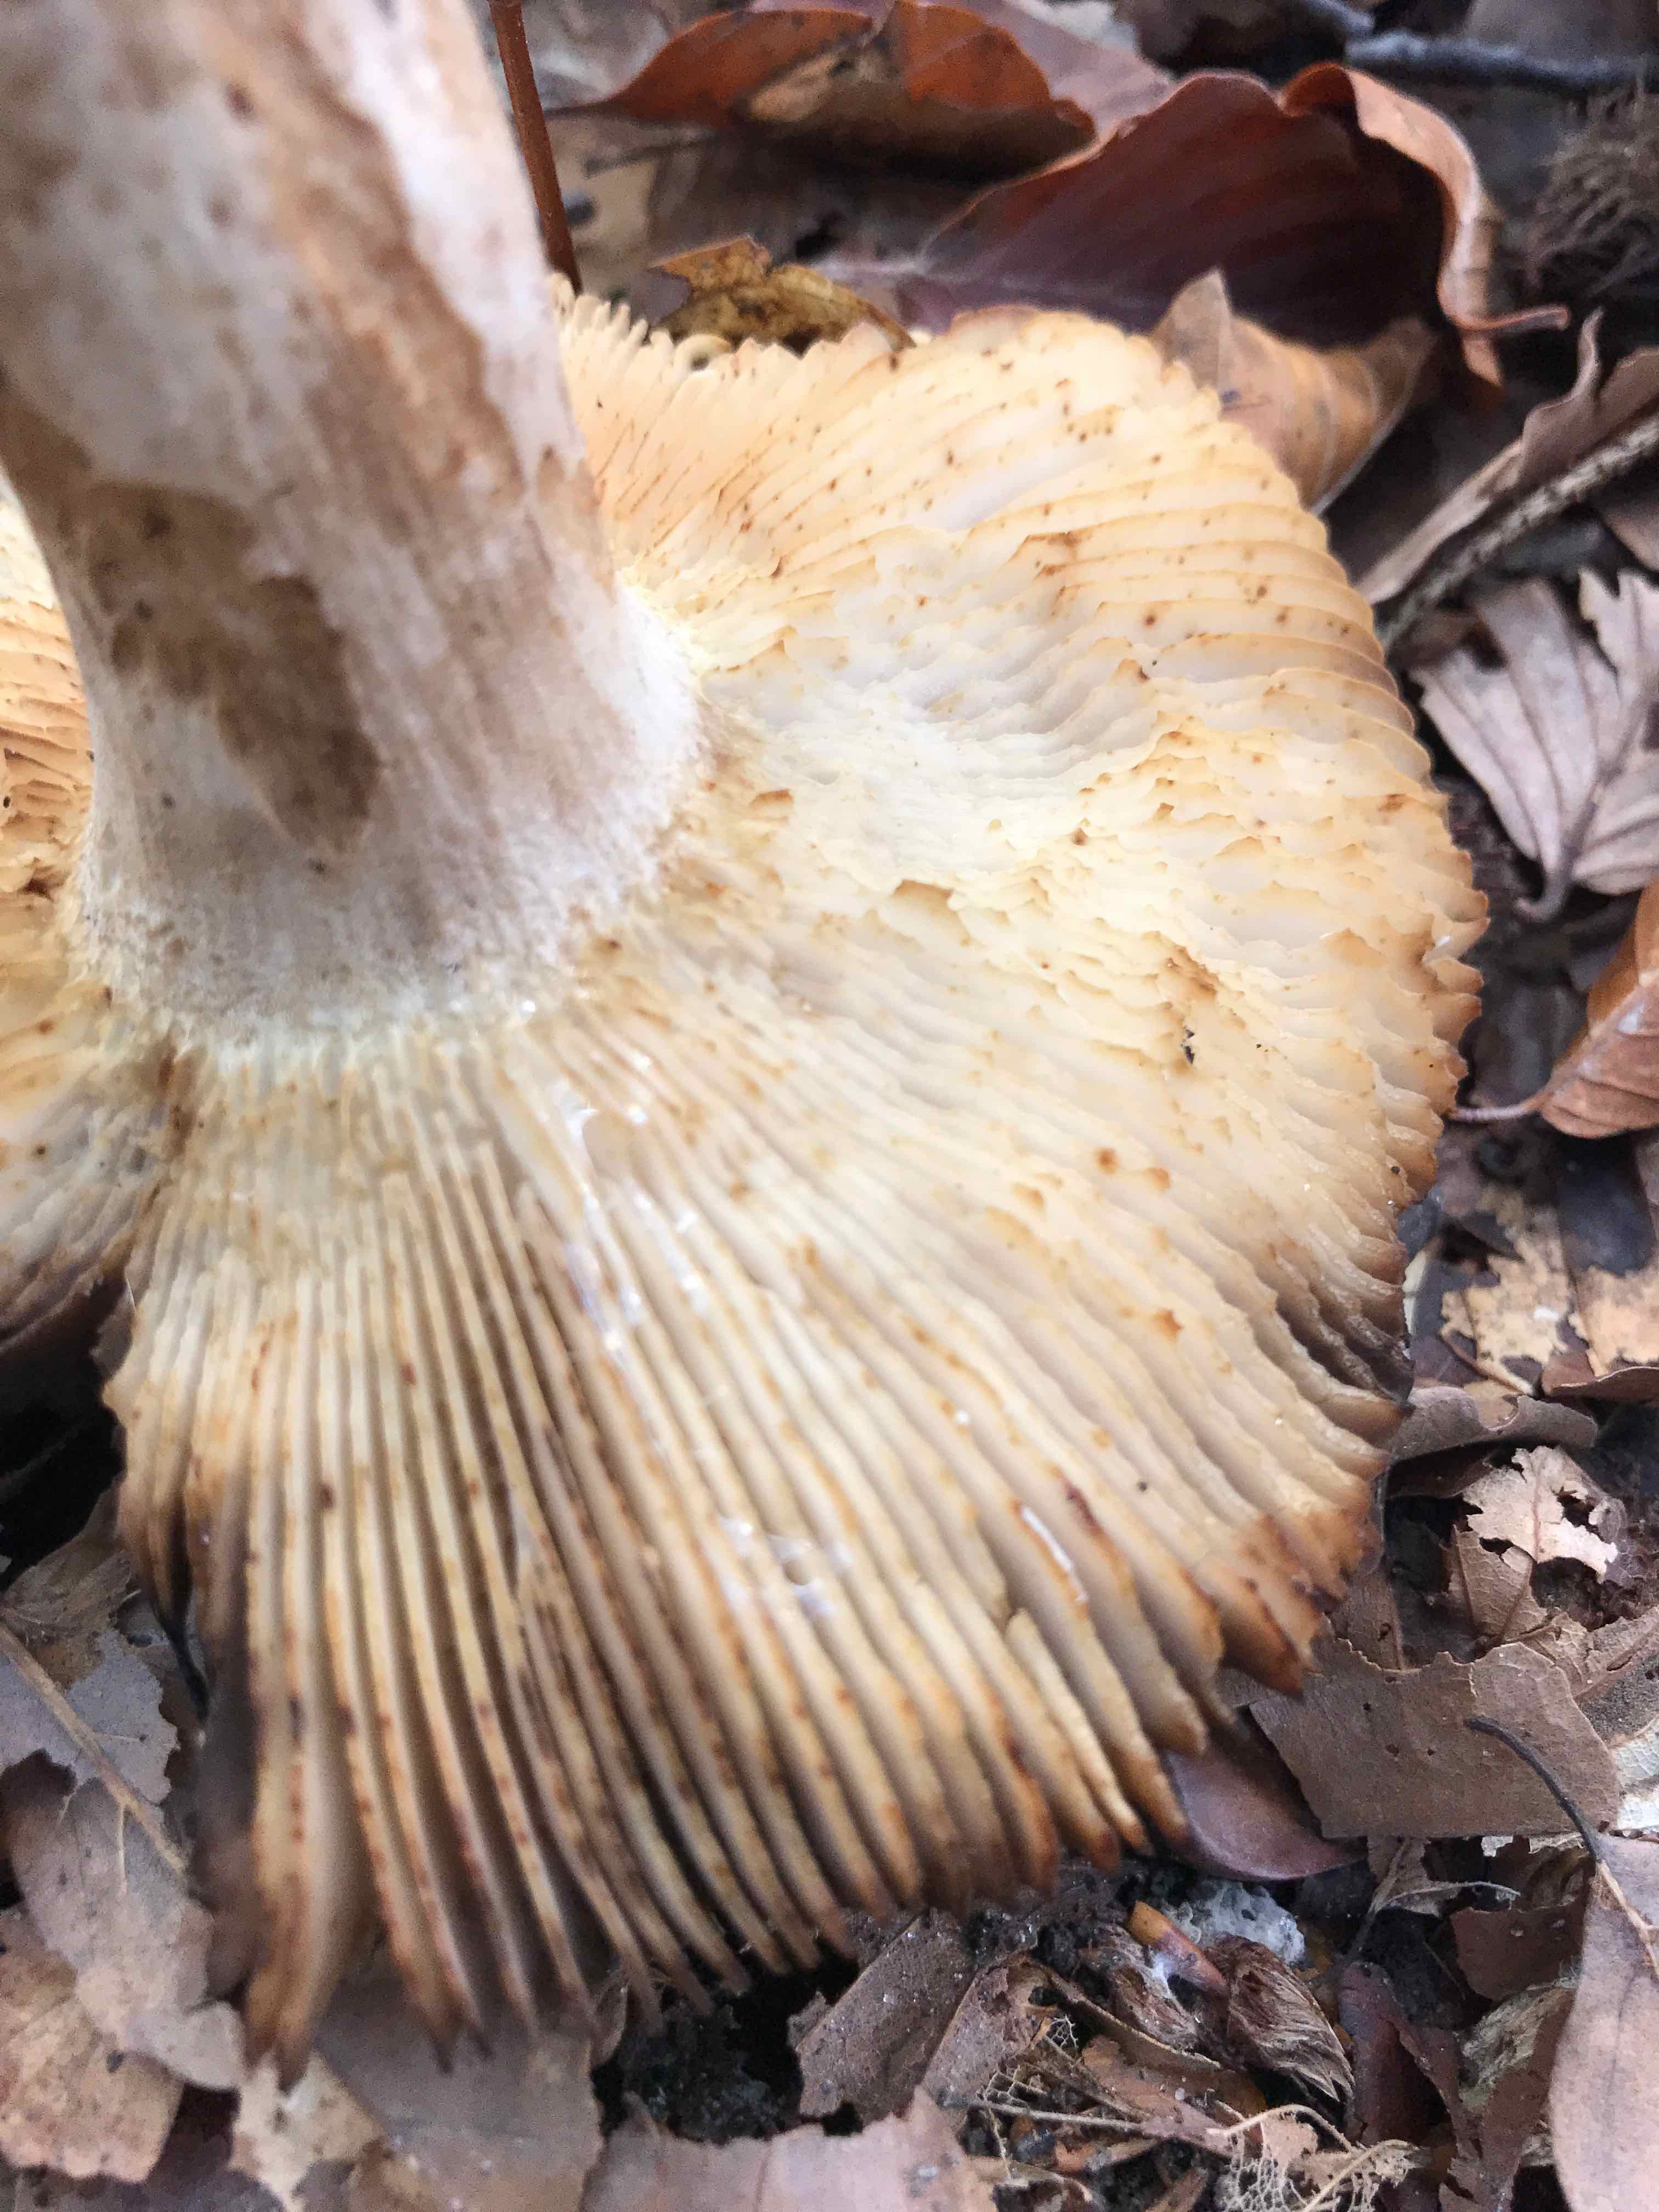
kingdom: Fungi
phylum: Basidiomycota
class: Agaricomycetes
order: Russulales
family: Russulaceae
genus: Russula
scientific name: Russula grata
